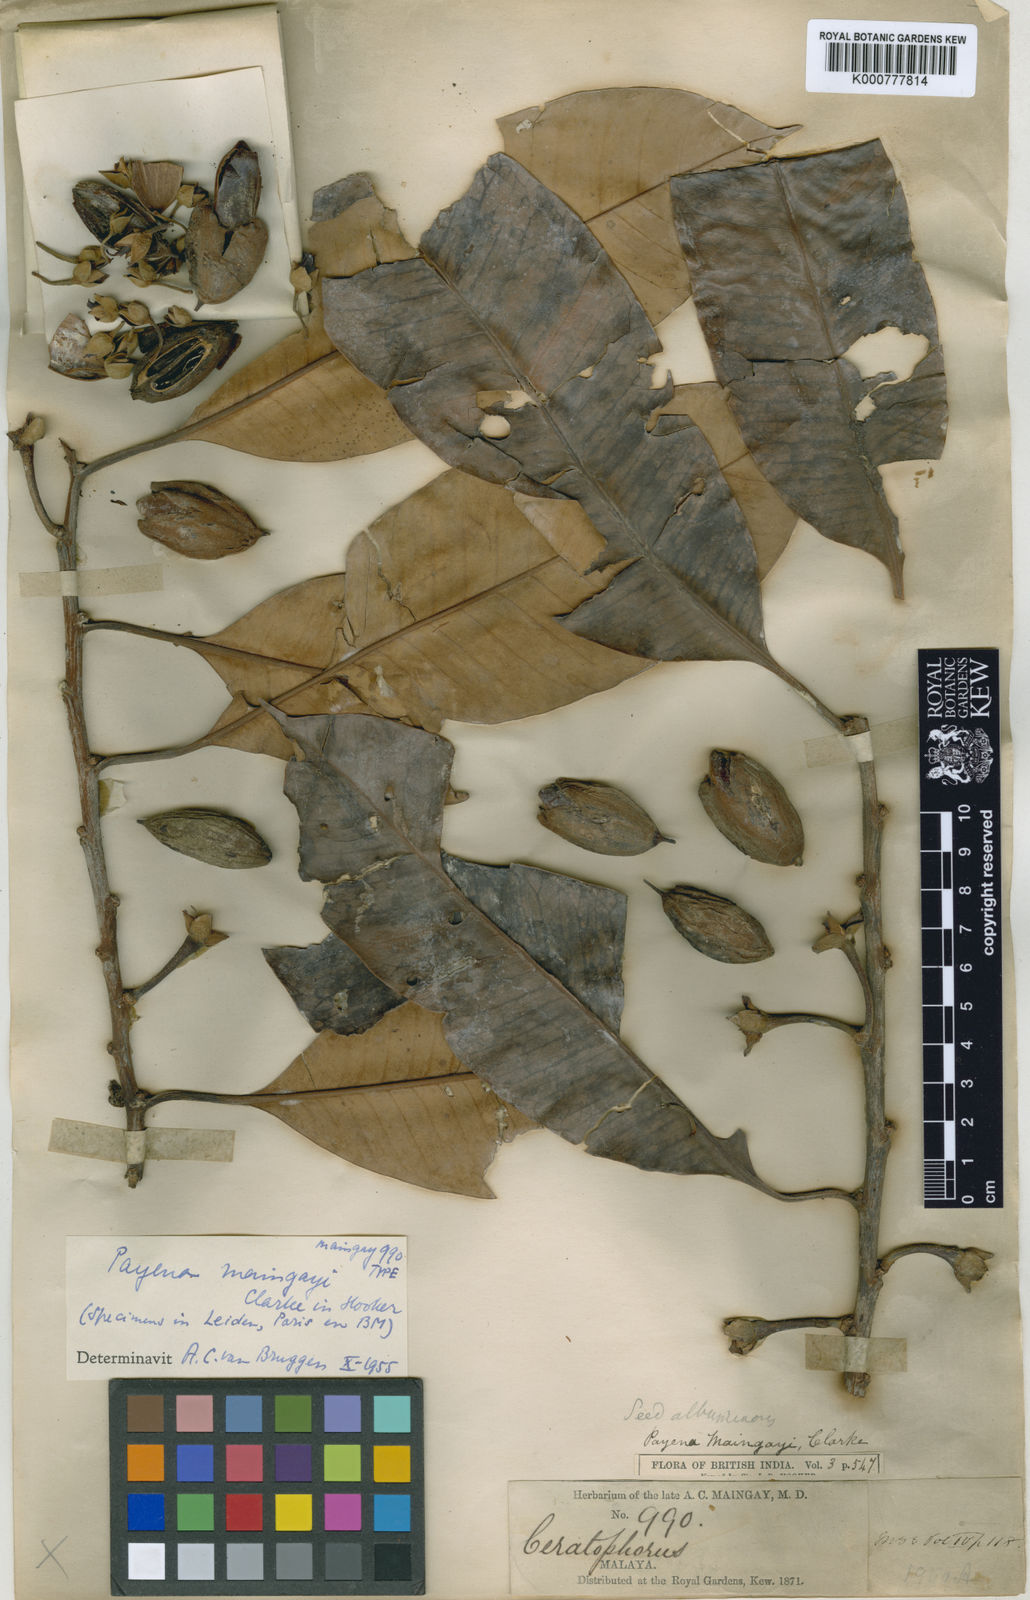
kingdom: Plantae
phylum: Tracheophyta
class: Magnoliopsida
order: Ericales
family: Sapotaceae
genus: Payena
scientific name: Payena maingayi
